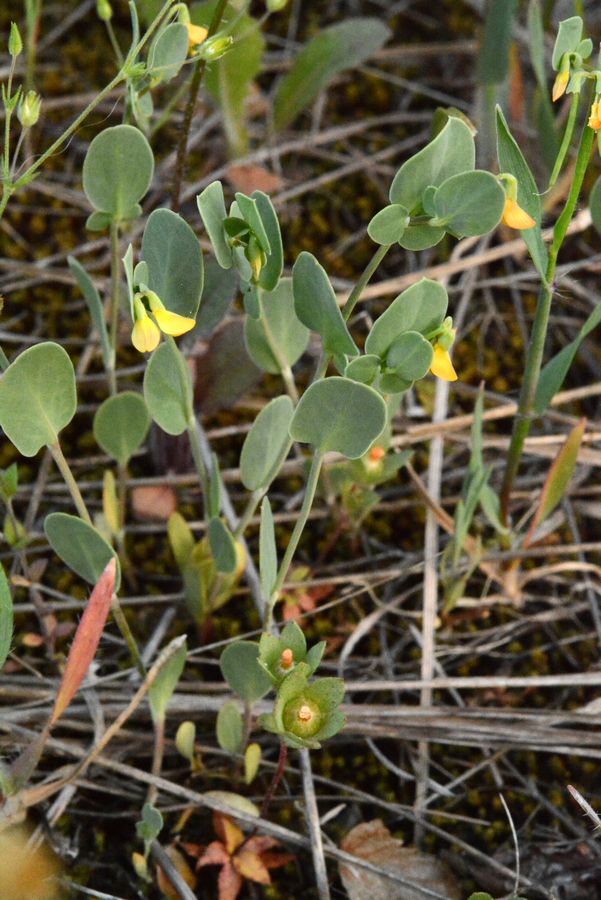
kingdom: Plantae
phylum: Tracheophyta
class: Magnoliopsida
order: Fabales
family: Fabaceae
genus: Coronilla
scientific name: Coronilla scorpioides
